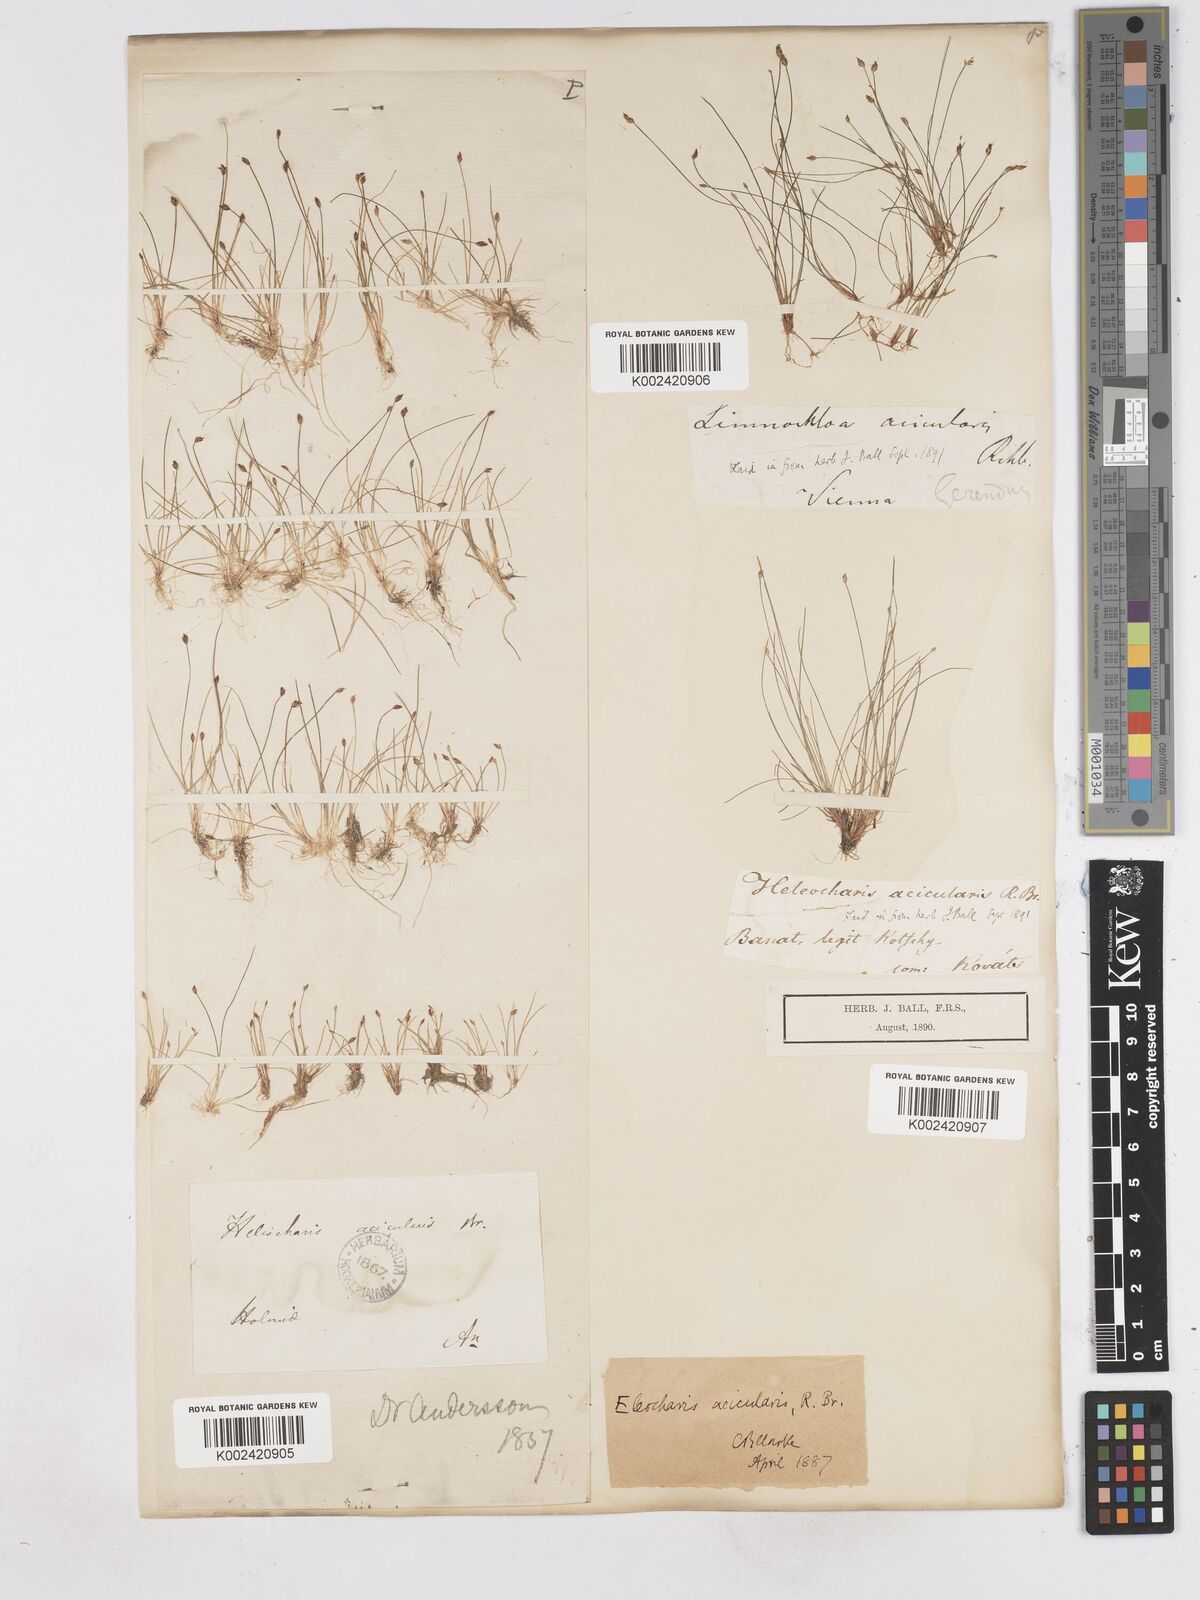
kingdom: Plantae
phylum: Tracheophyta
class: Liliopsida
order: Poales
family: Cyperaceae
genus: Eleocharis
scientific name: Eleocharis acicularis
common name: Needle spike-rush
